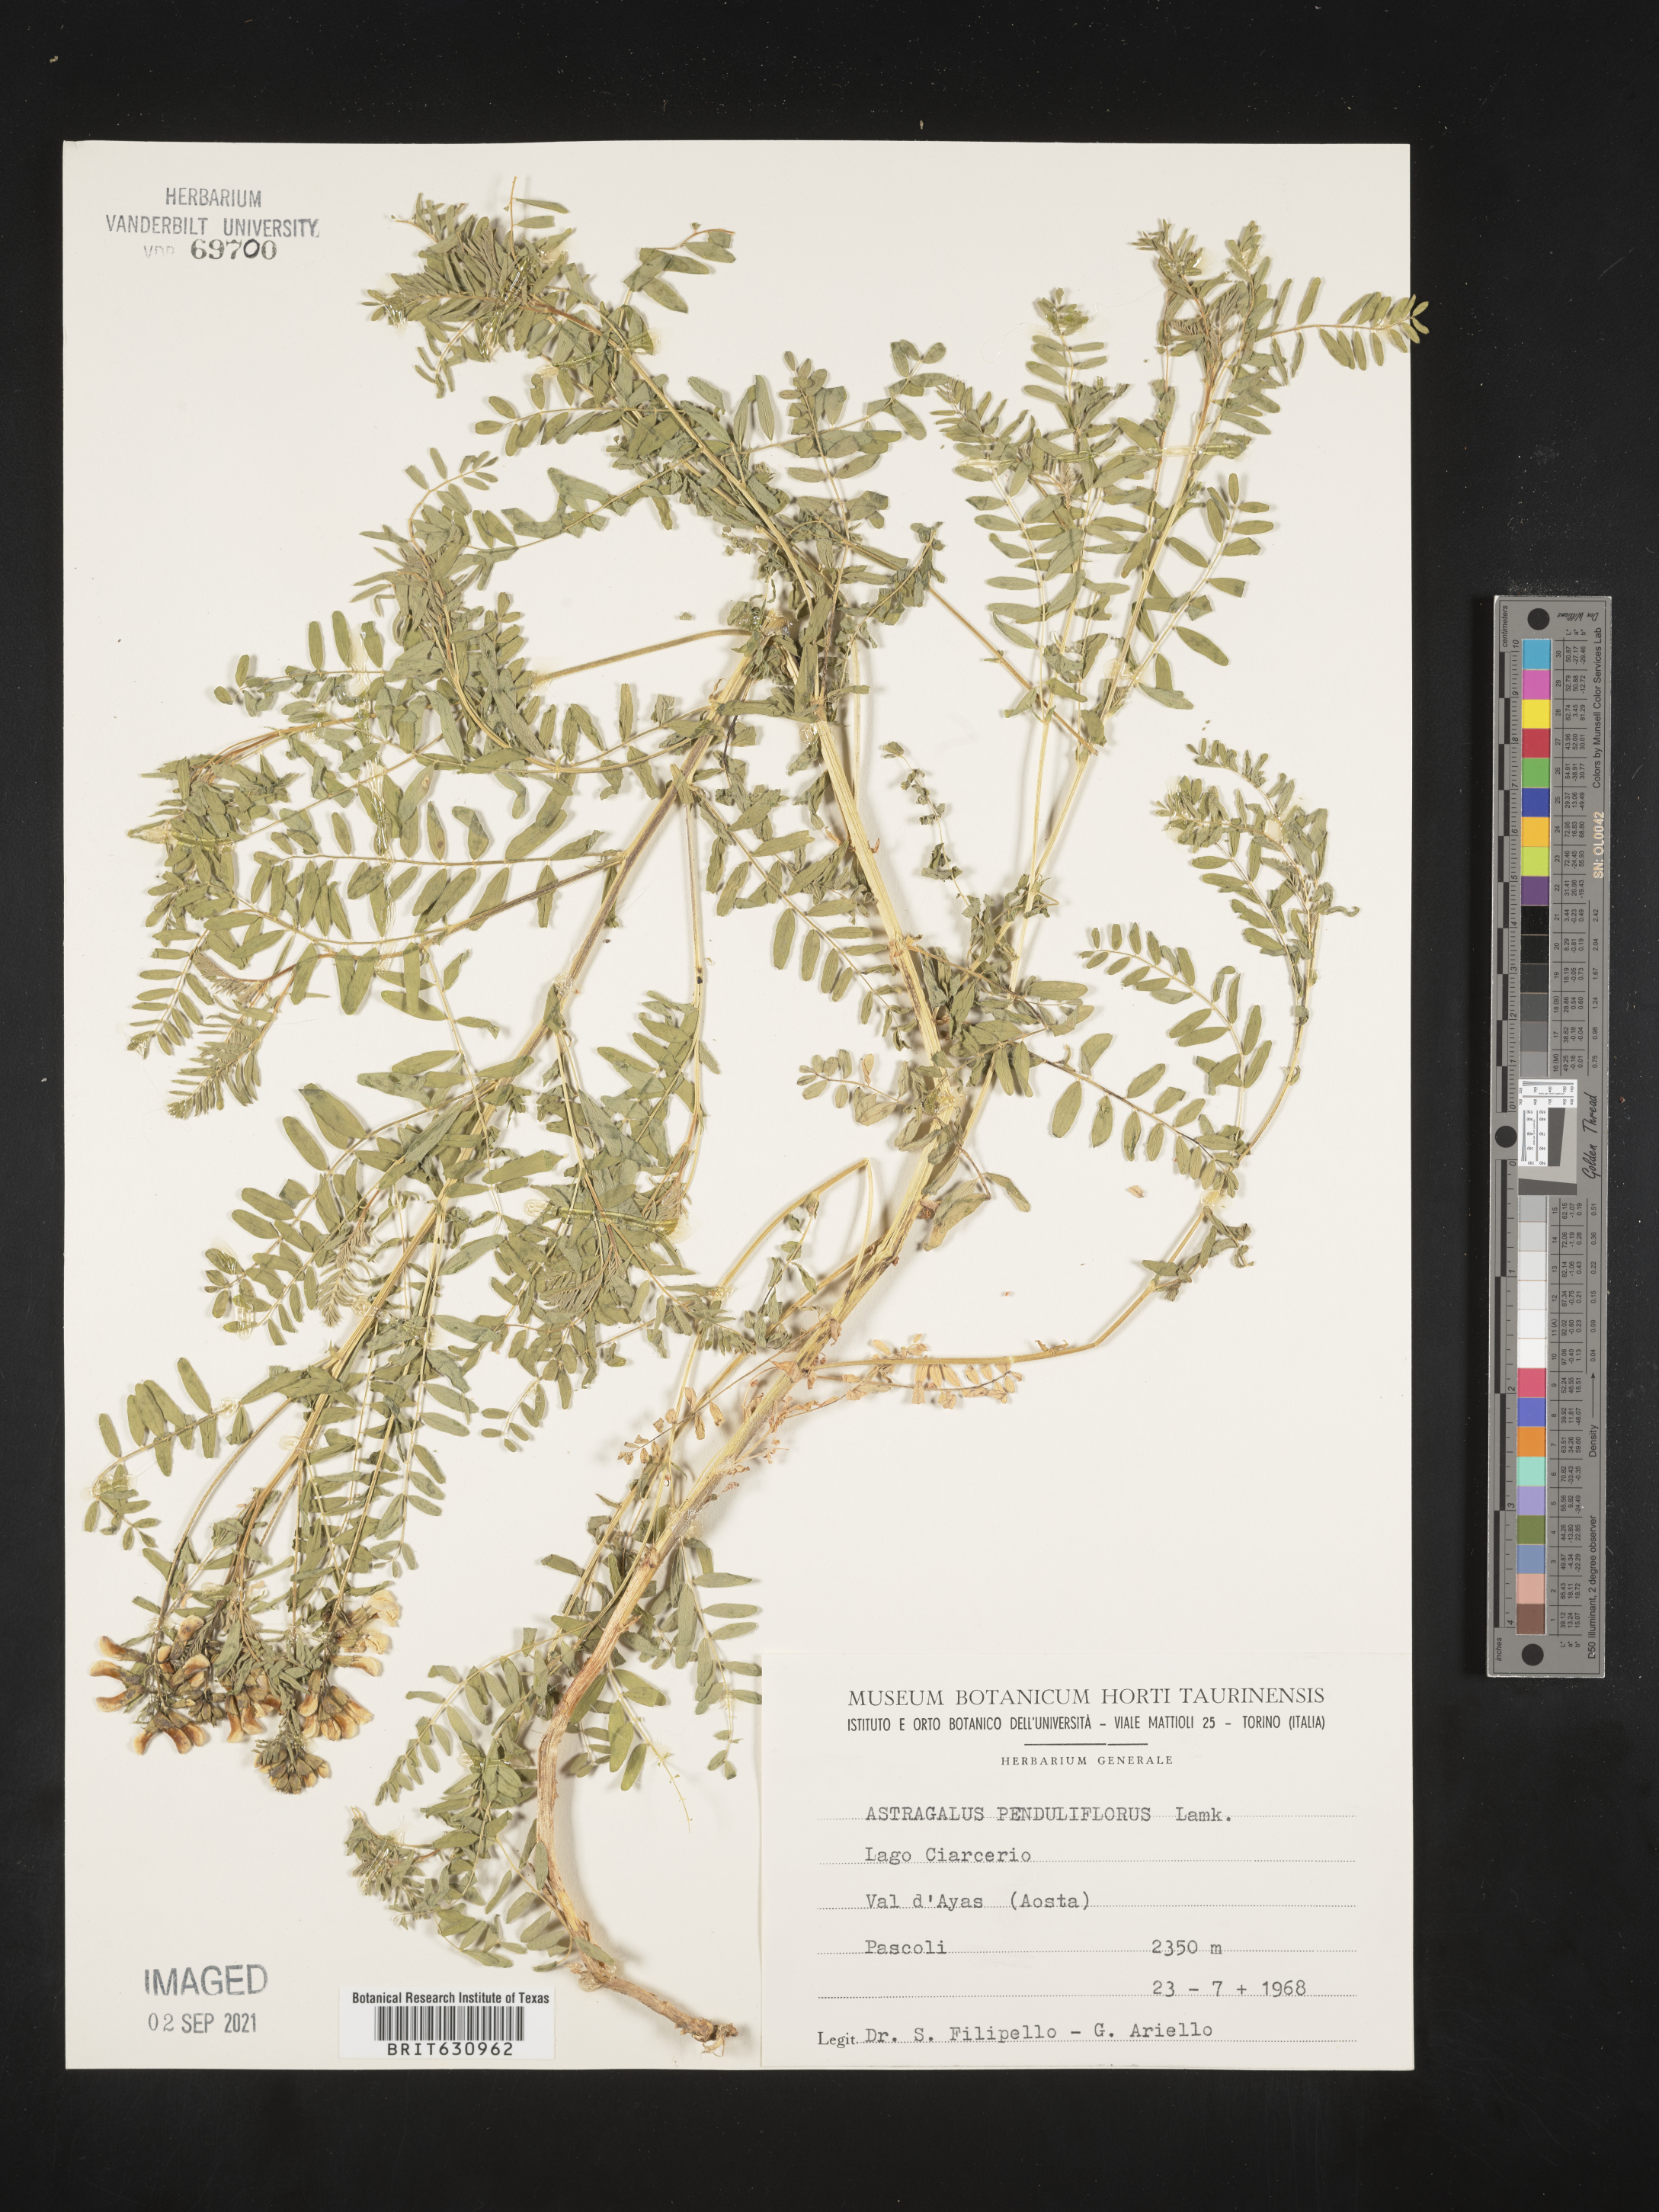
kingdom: Plantae
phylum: Tracheophyta
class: Magnoliopsida
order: Fabales
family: Fabaceae
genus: Astragalus
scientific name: Astragalus
